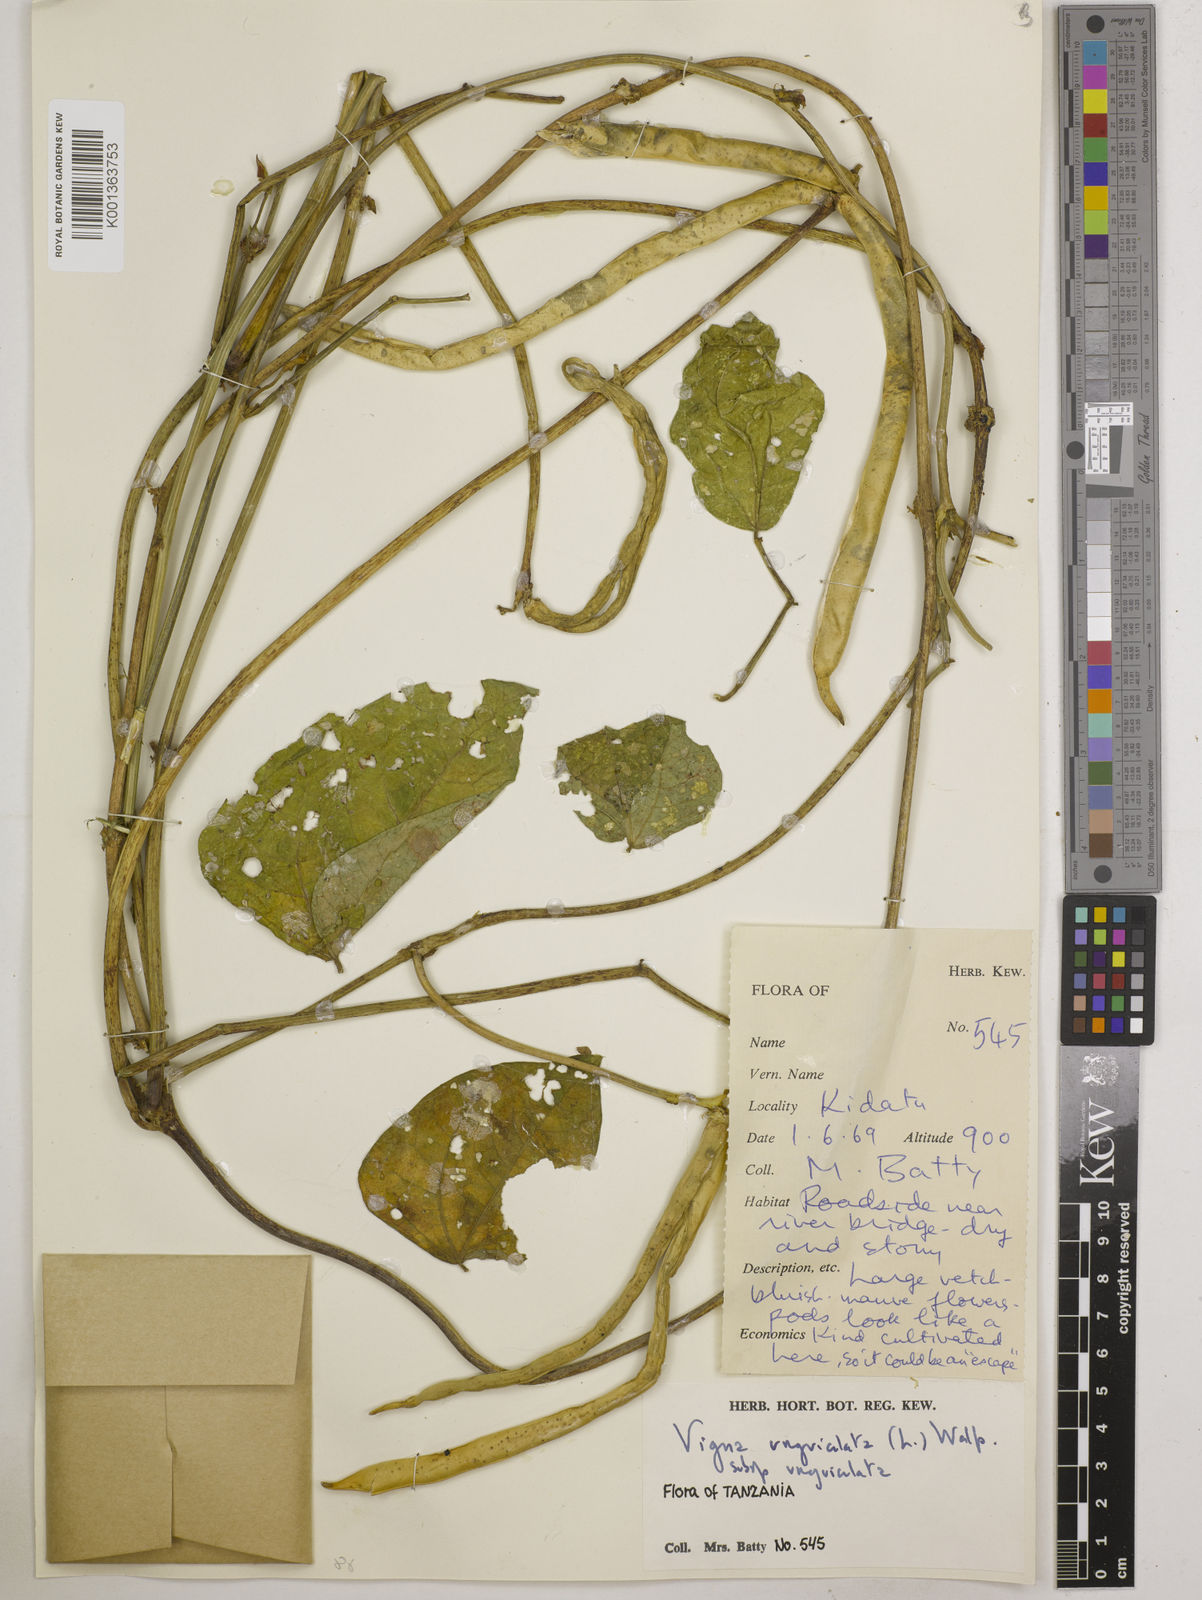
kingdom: Plantae
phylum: Tracheophyta
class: Magnoliopsida
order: Fabales
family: Fabaceae
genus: Vigna
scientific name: Vigna unguiculata
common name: Cowpea
